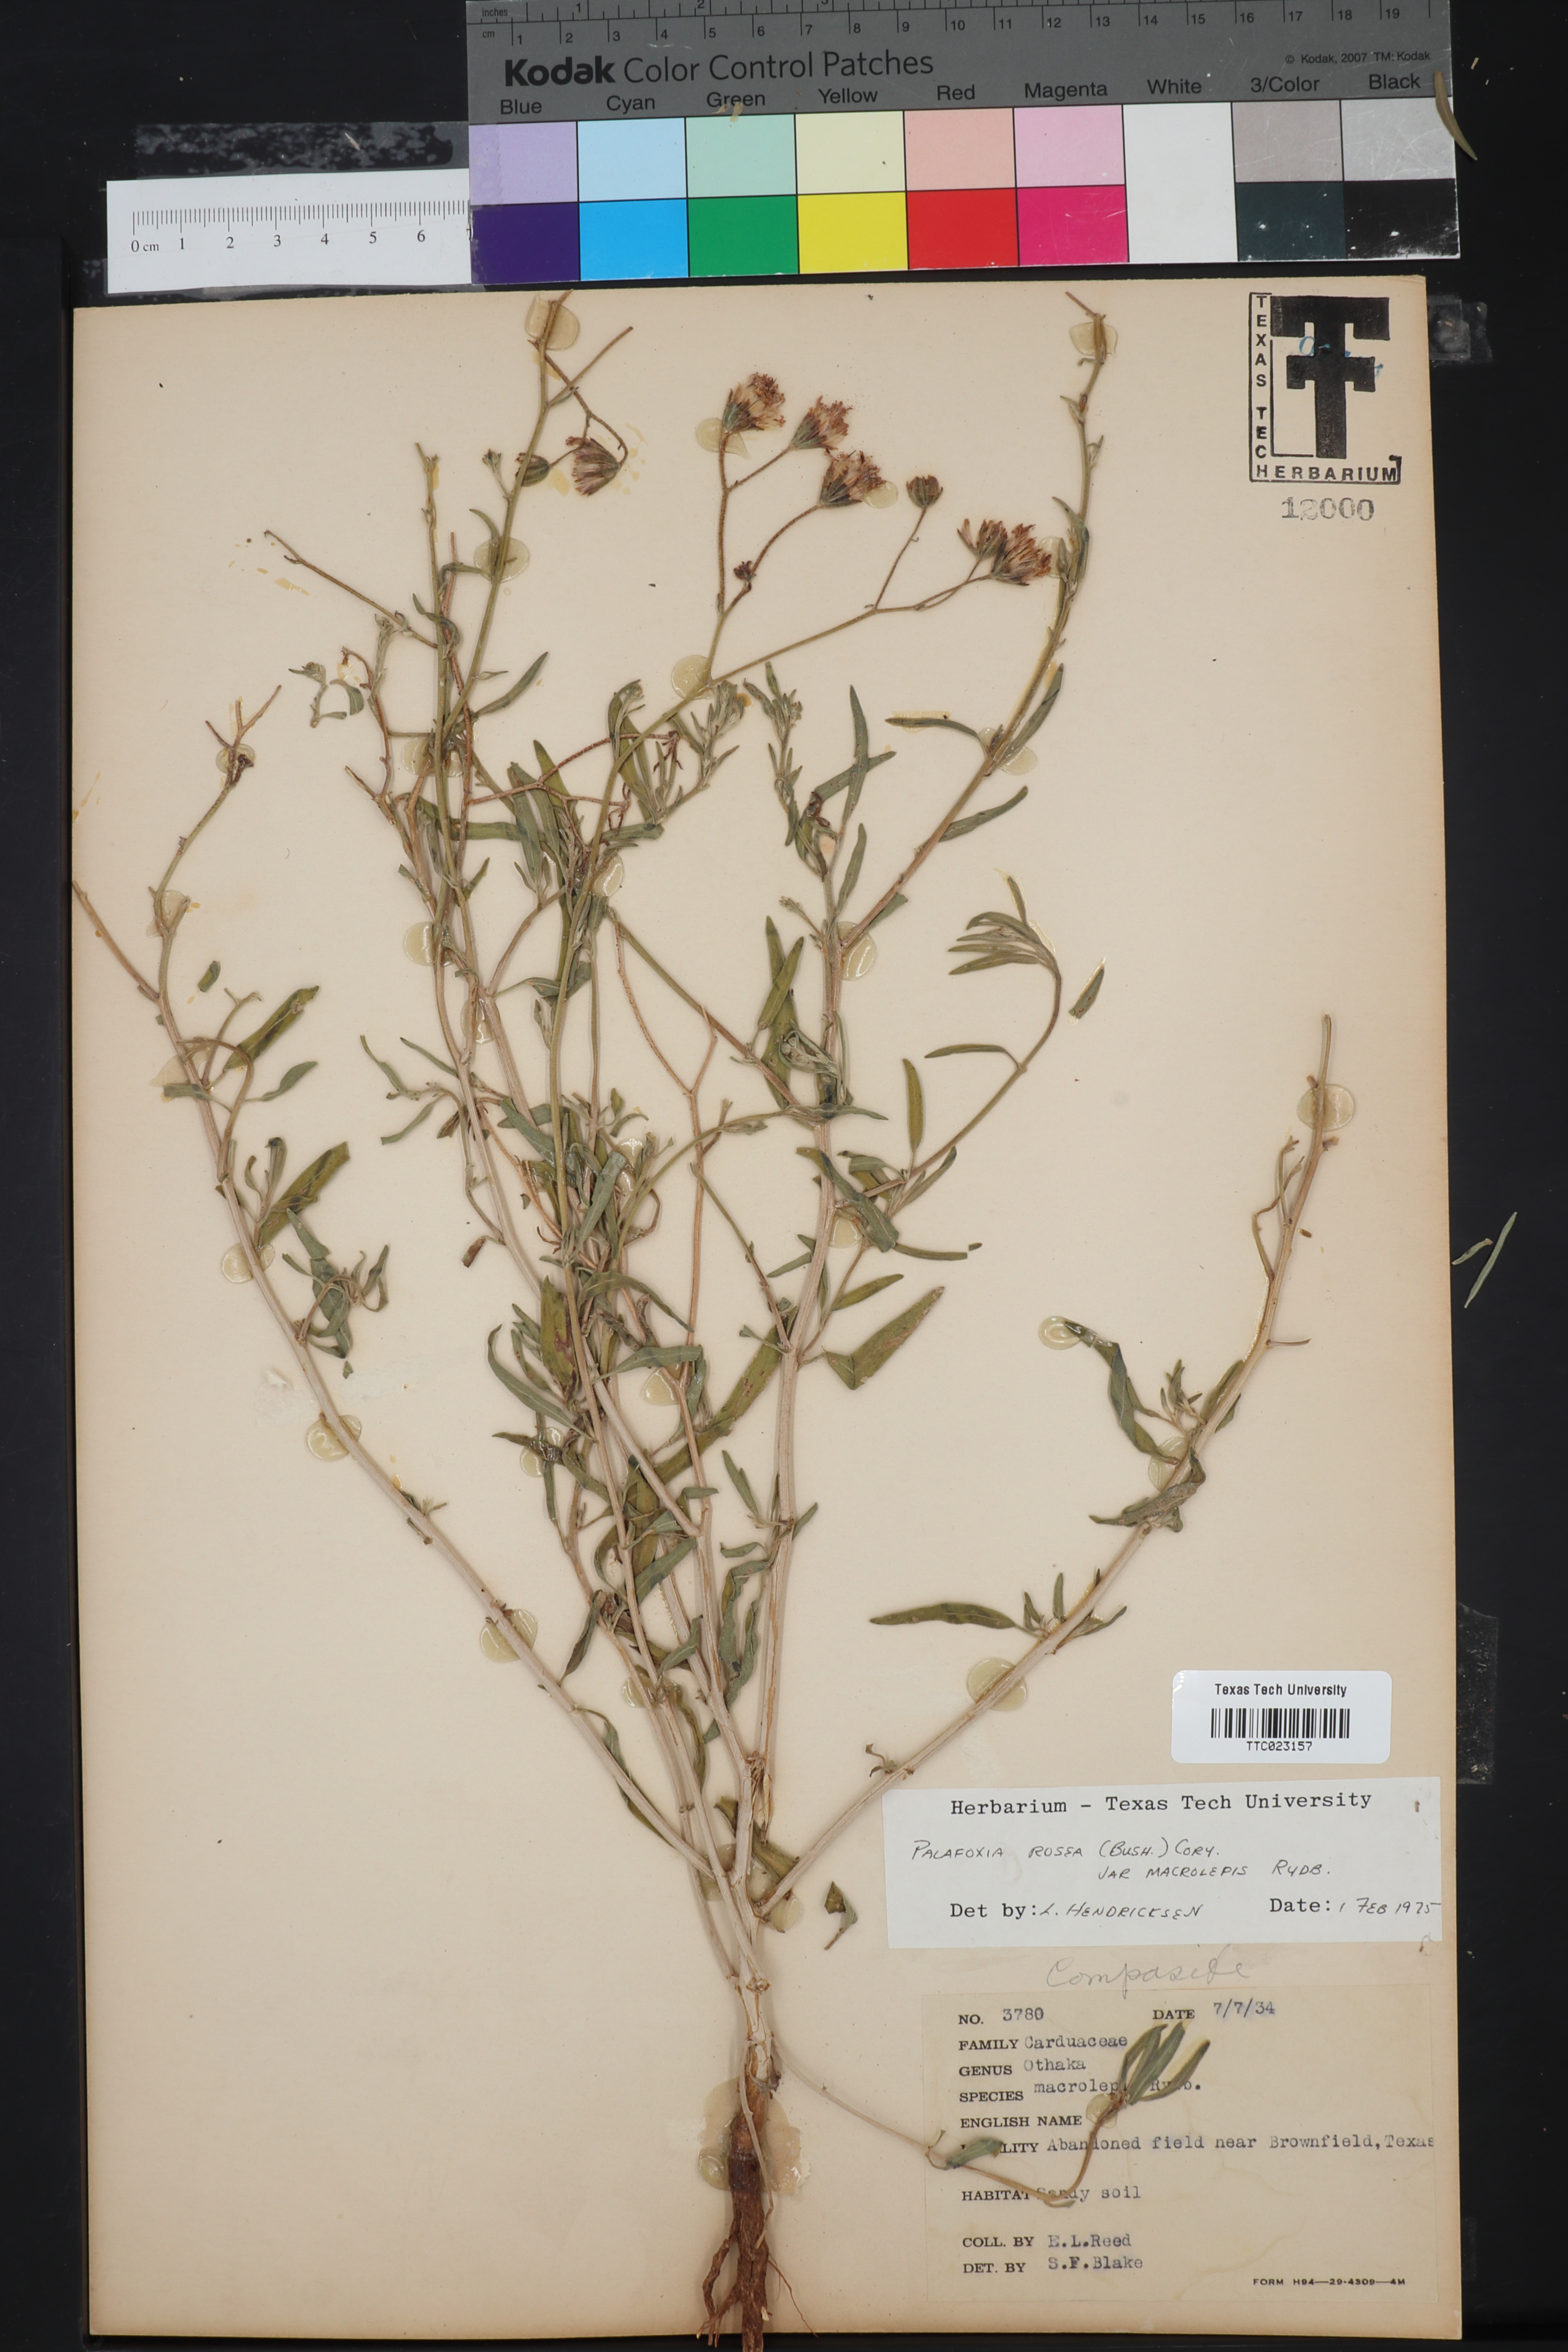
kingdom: Plantae
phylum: Tracheophyta
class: Magnoliopsida
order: Asterales
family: Asteraceae
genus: Palafoxia
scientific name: Palafoxia rosea
